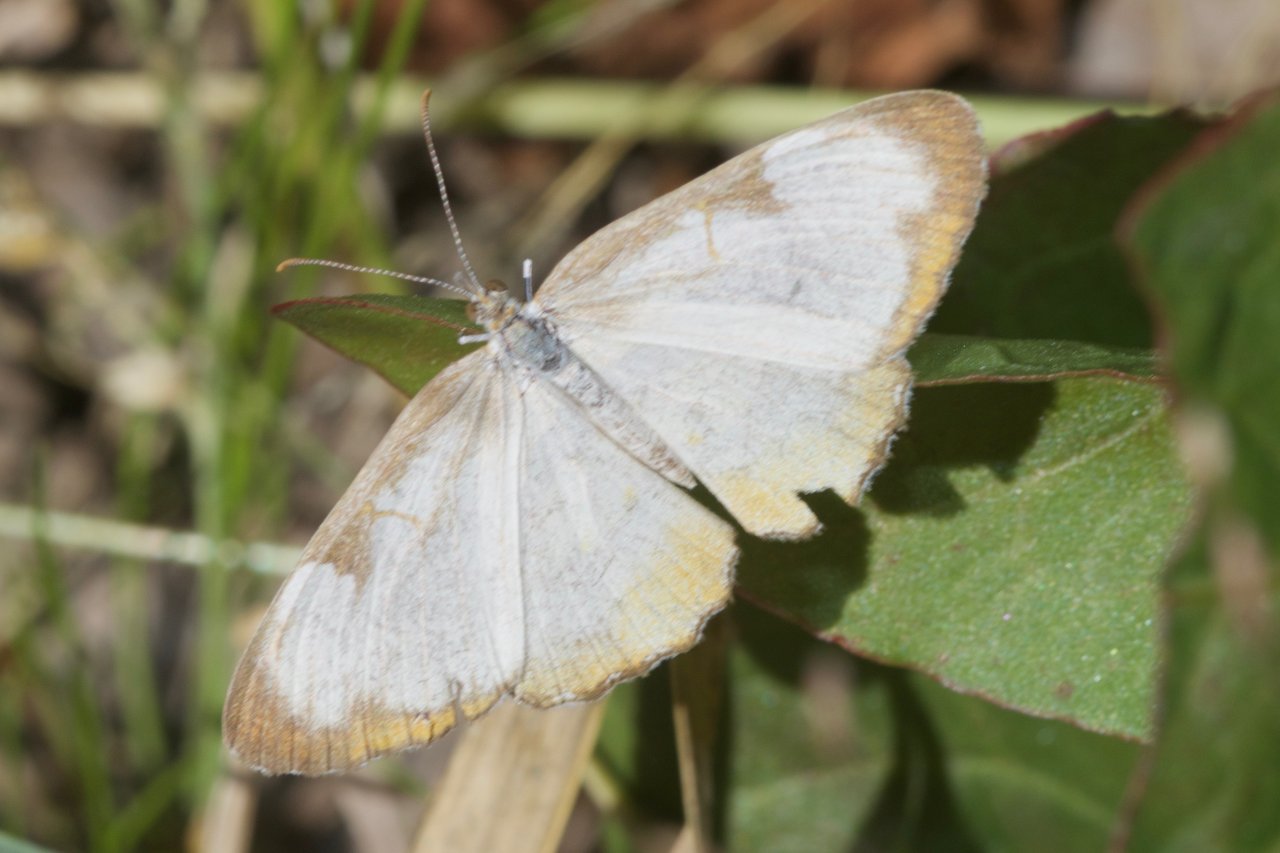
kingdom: Animalia
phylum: Arthropoda
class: Insecta
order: Lepidoptera
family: Nymphalidae
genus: Mestra
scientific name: Mestra amymone
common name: Common Mestra
